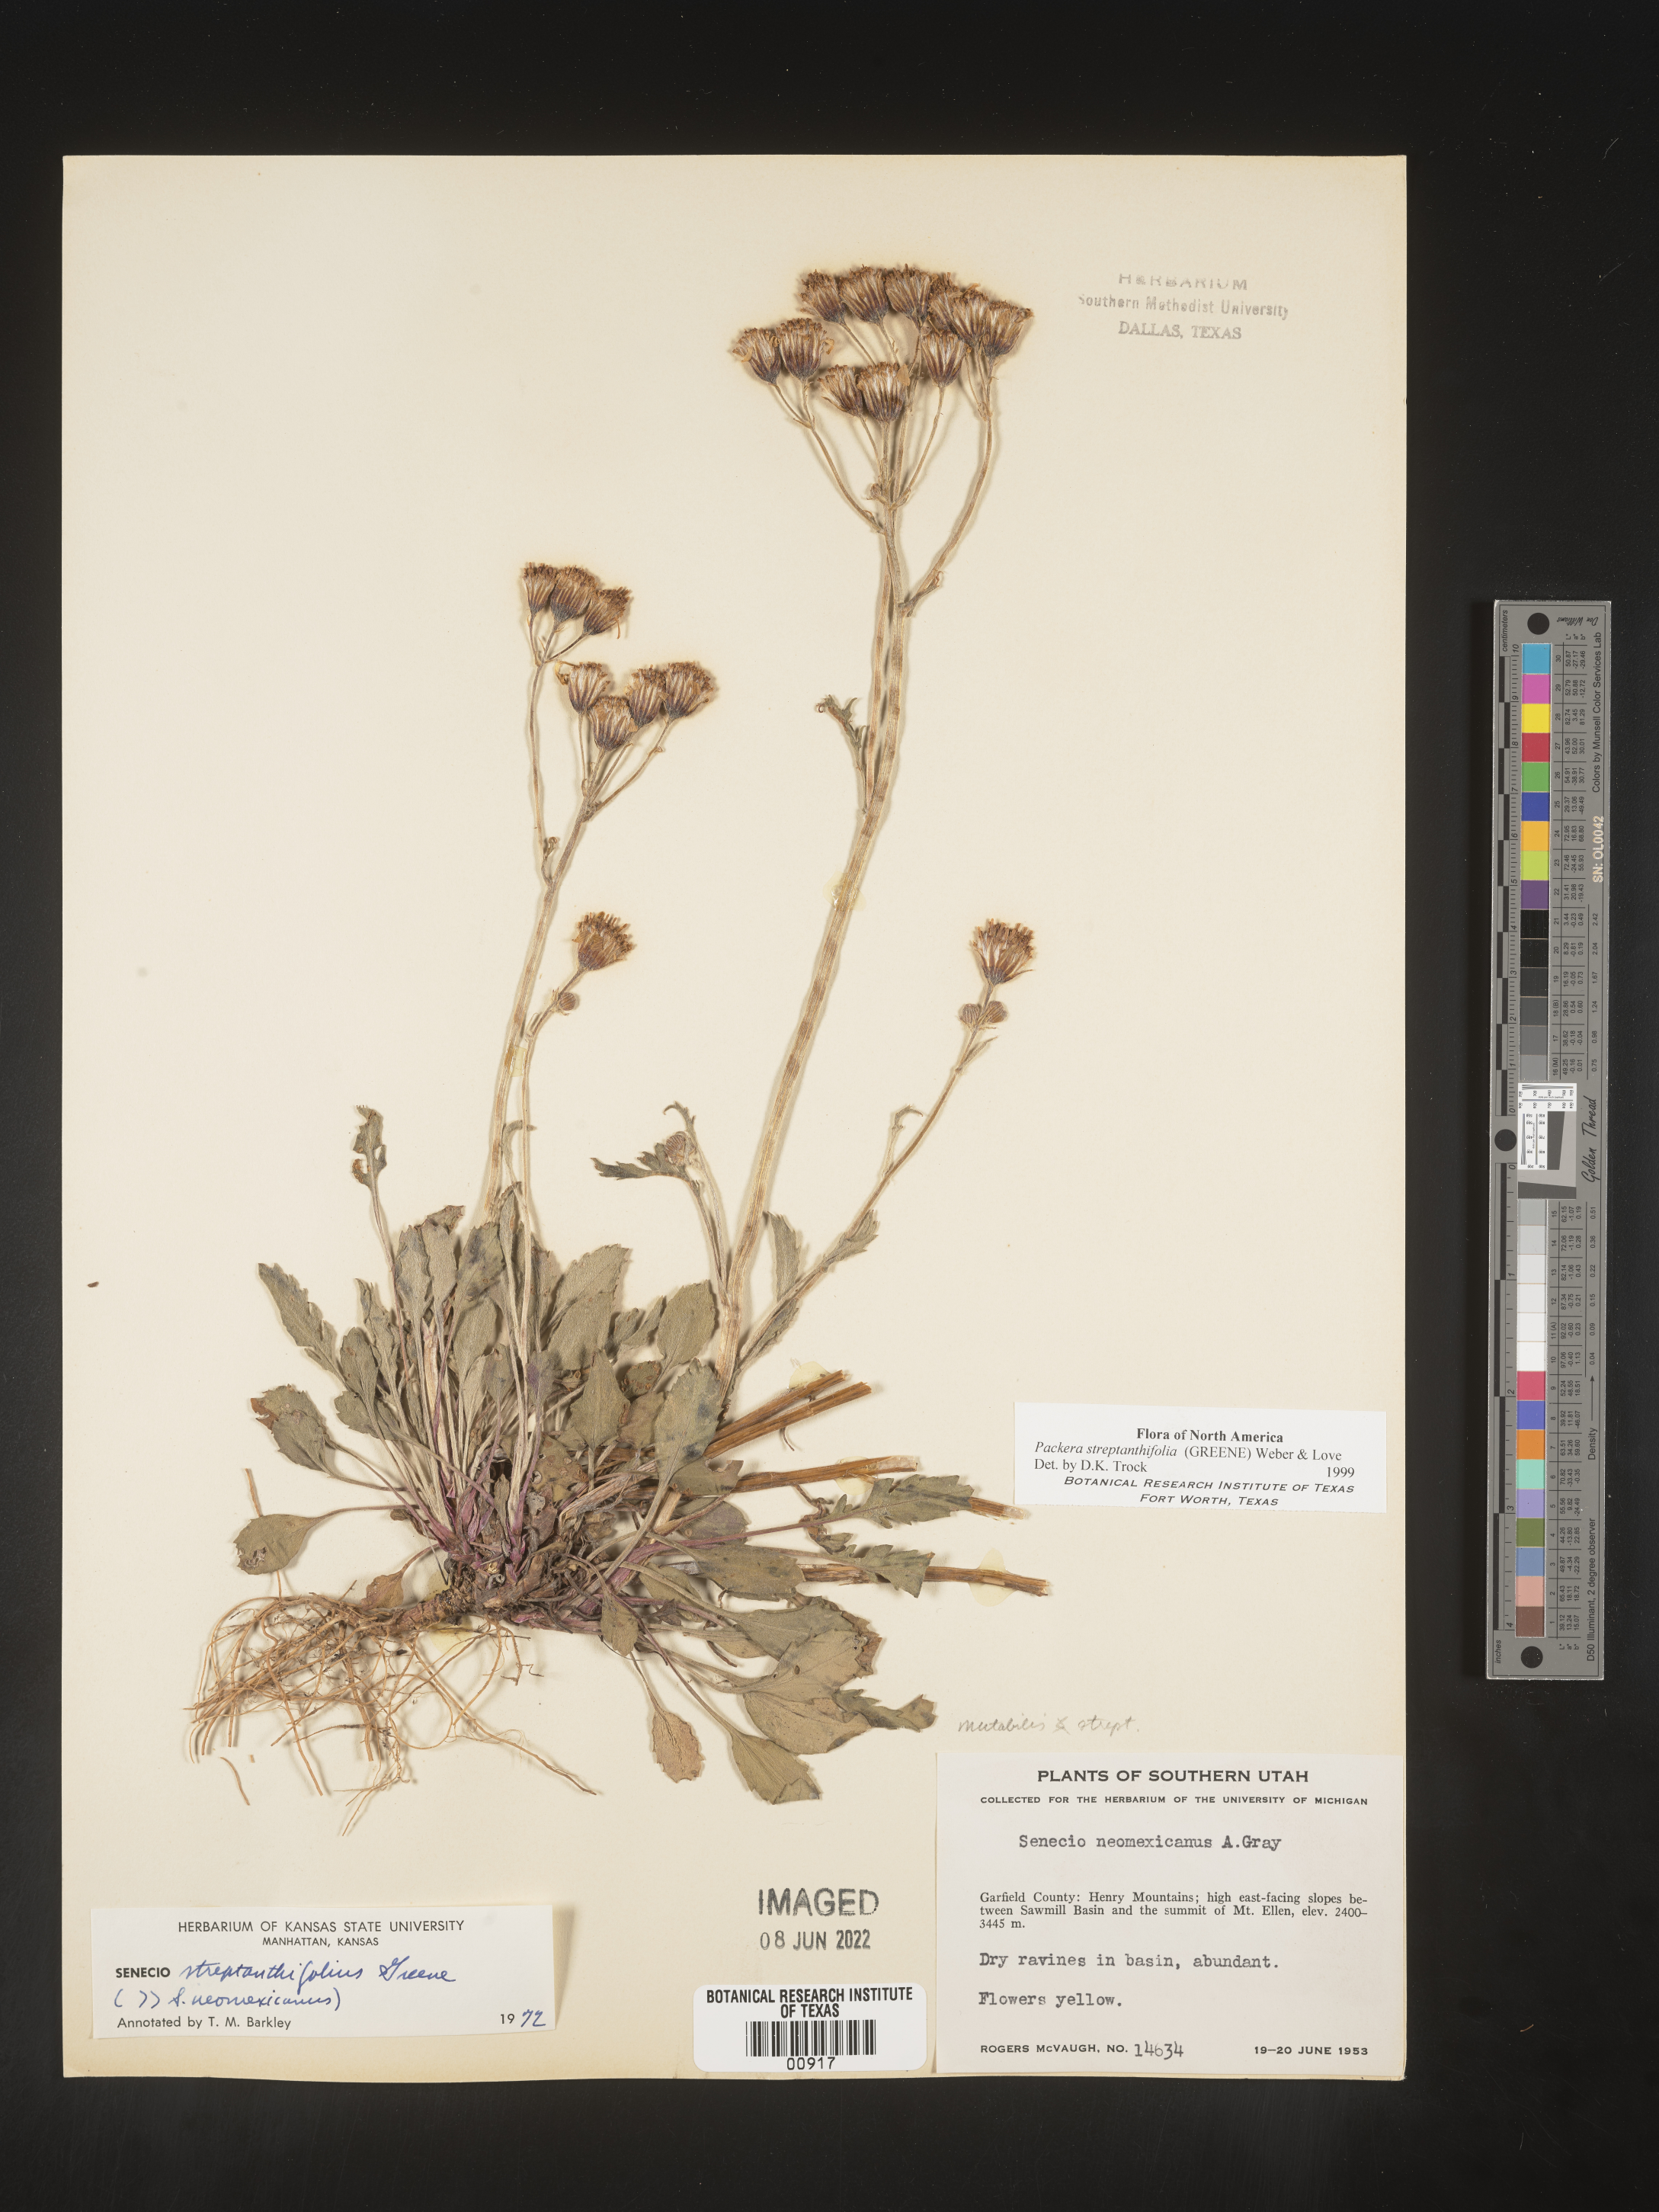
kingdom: Plantae
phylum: Tracheophyta
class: Magnoliopsida
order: Asterales
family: Asteraceae
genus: Packera
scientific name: Packera streptanthifolia
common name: Rocky mountain butterweed
